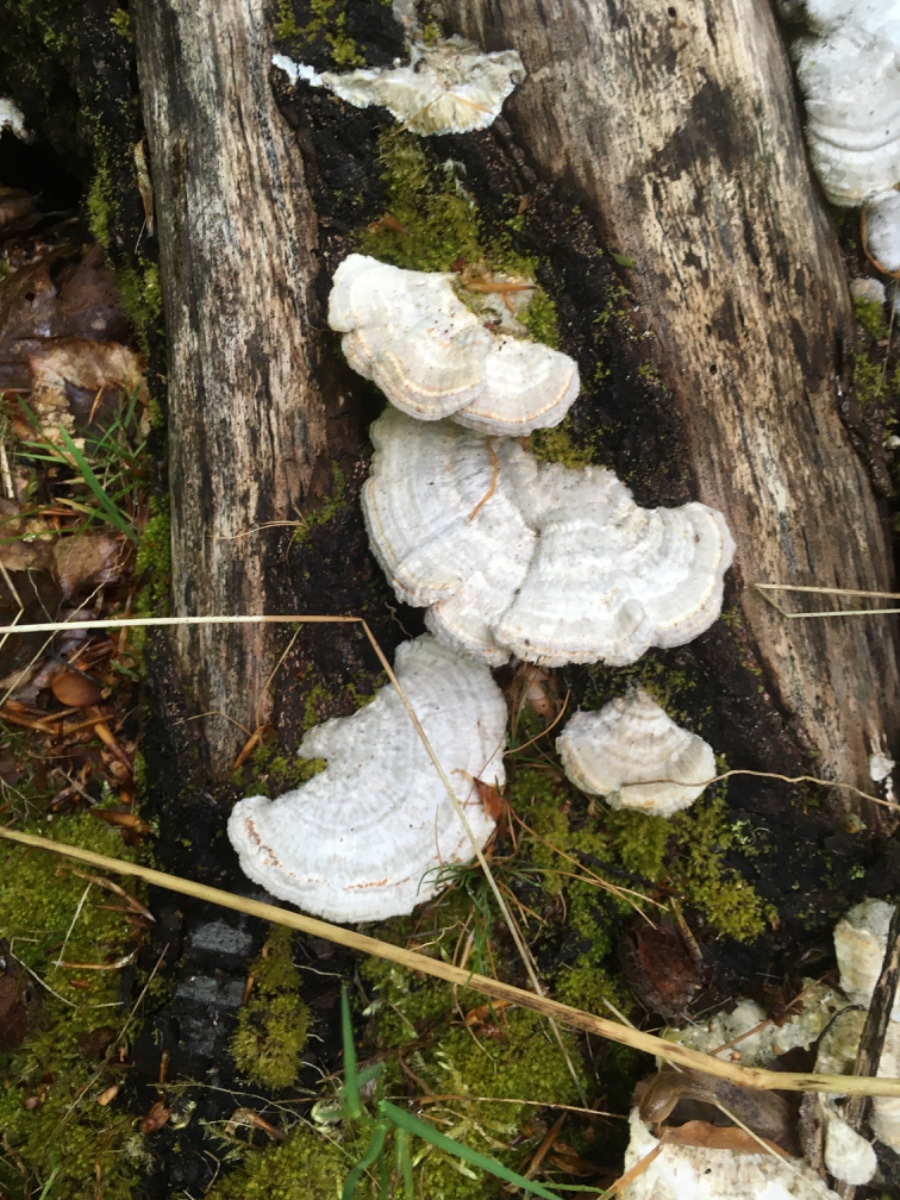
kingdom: Fungi
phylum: Basidiomycota
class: Agaricomycetes
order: Polyporales
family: Polyporaceae
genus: Lenzites
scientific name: Lenzites betulinus
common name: birke-læderporesvamp
